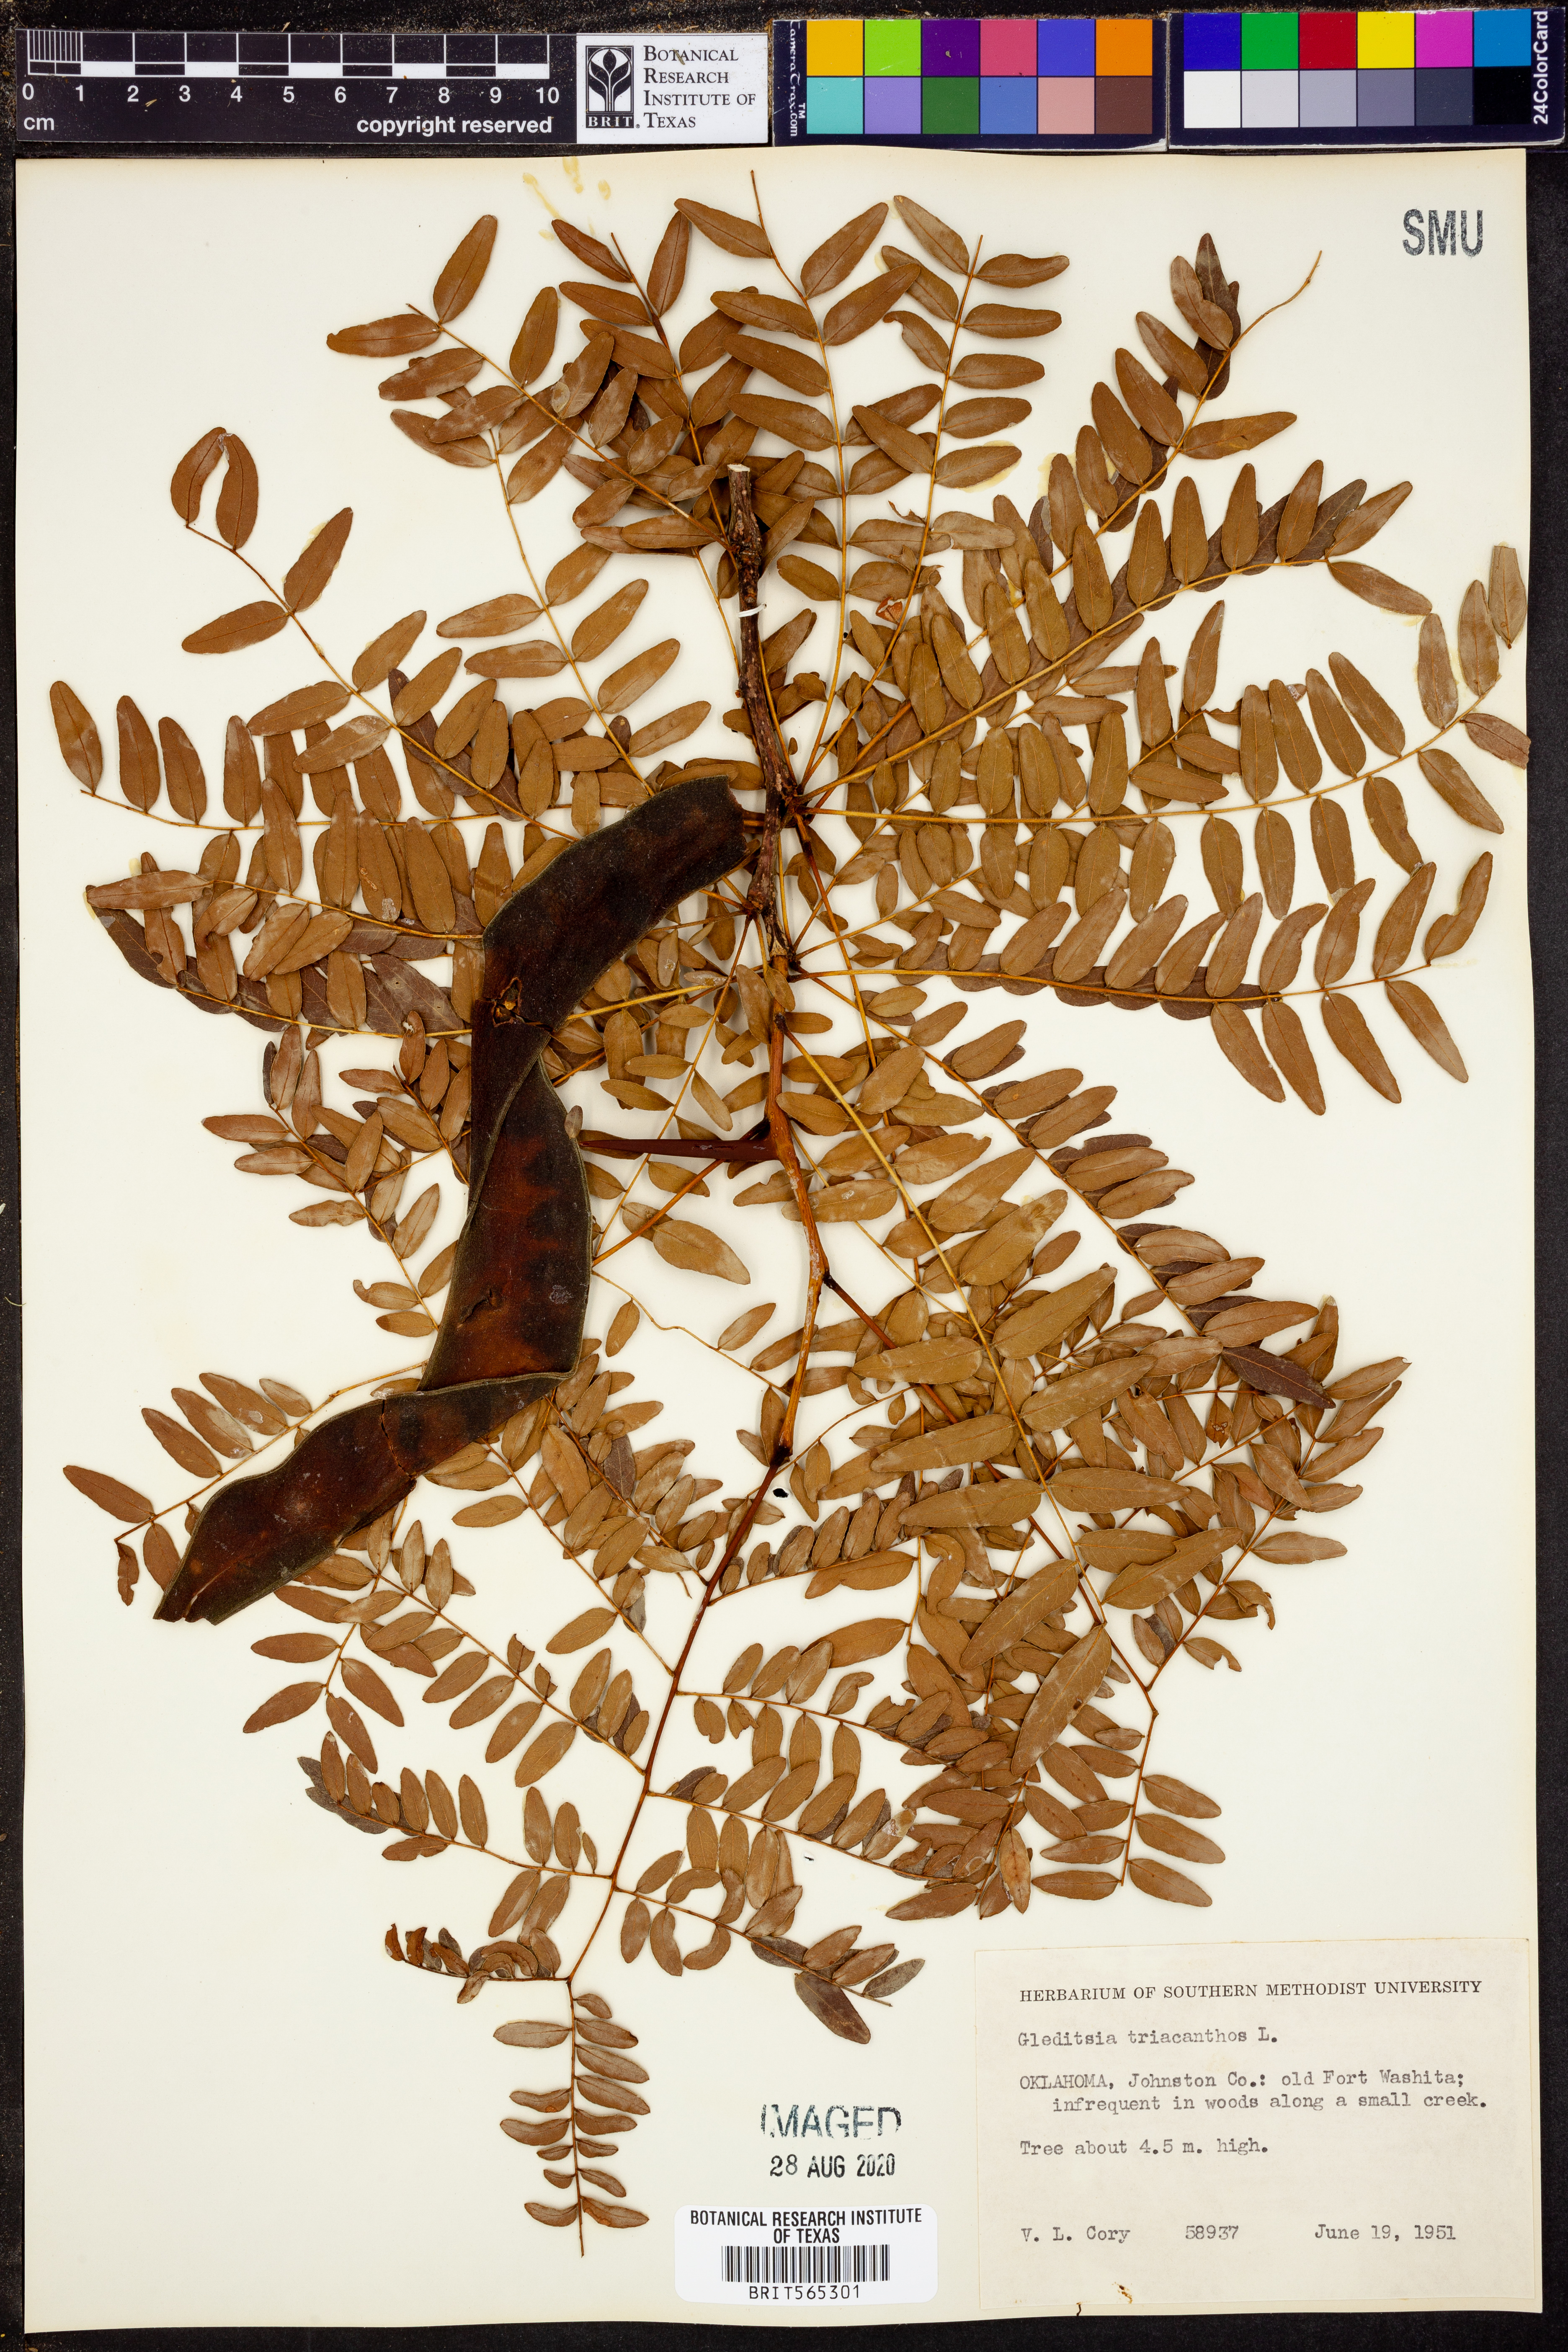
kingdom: Plantae
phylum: Tracheophyta
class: Magnoliopsida
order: Fabales
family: Fabaceae
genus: Gleditsia
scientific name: Gleditsia triacanthos
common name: Common honeylocust
